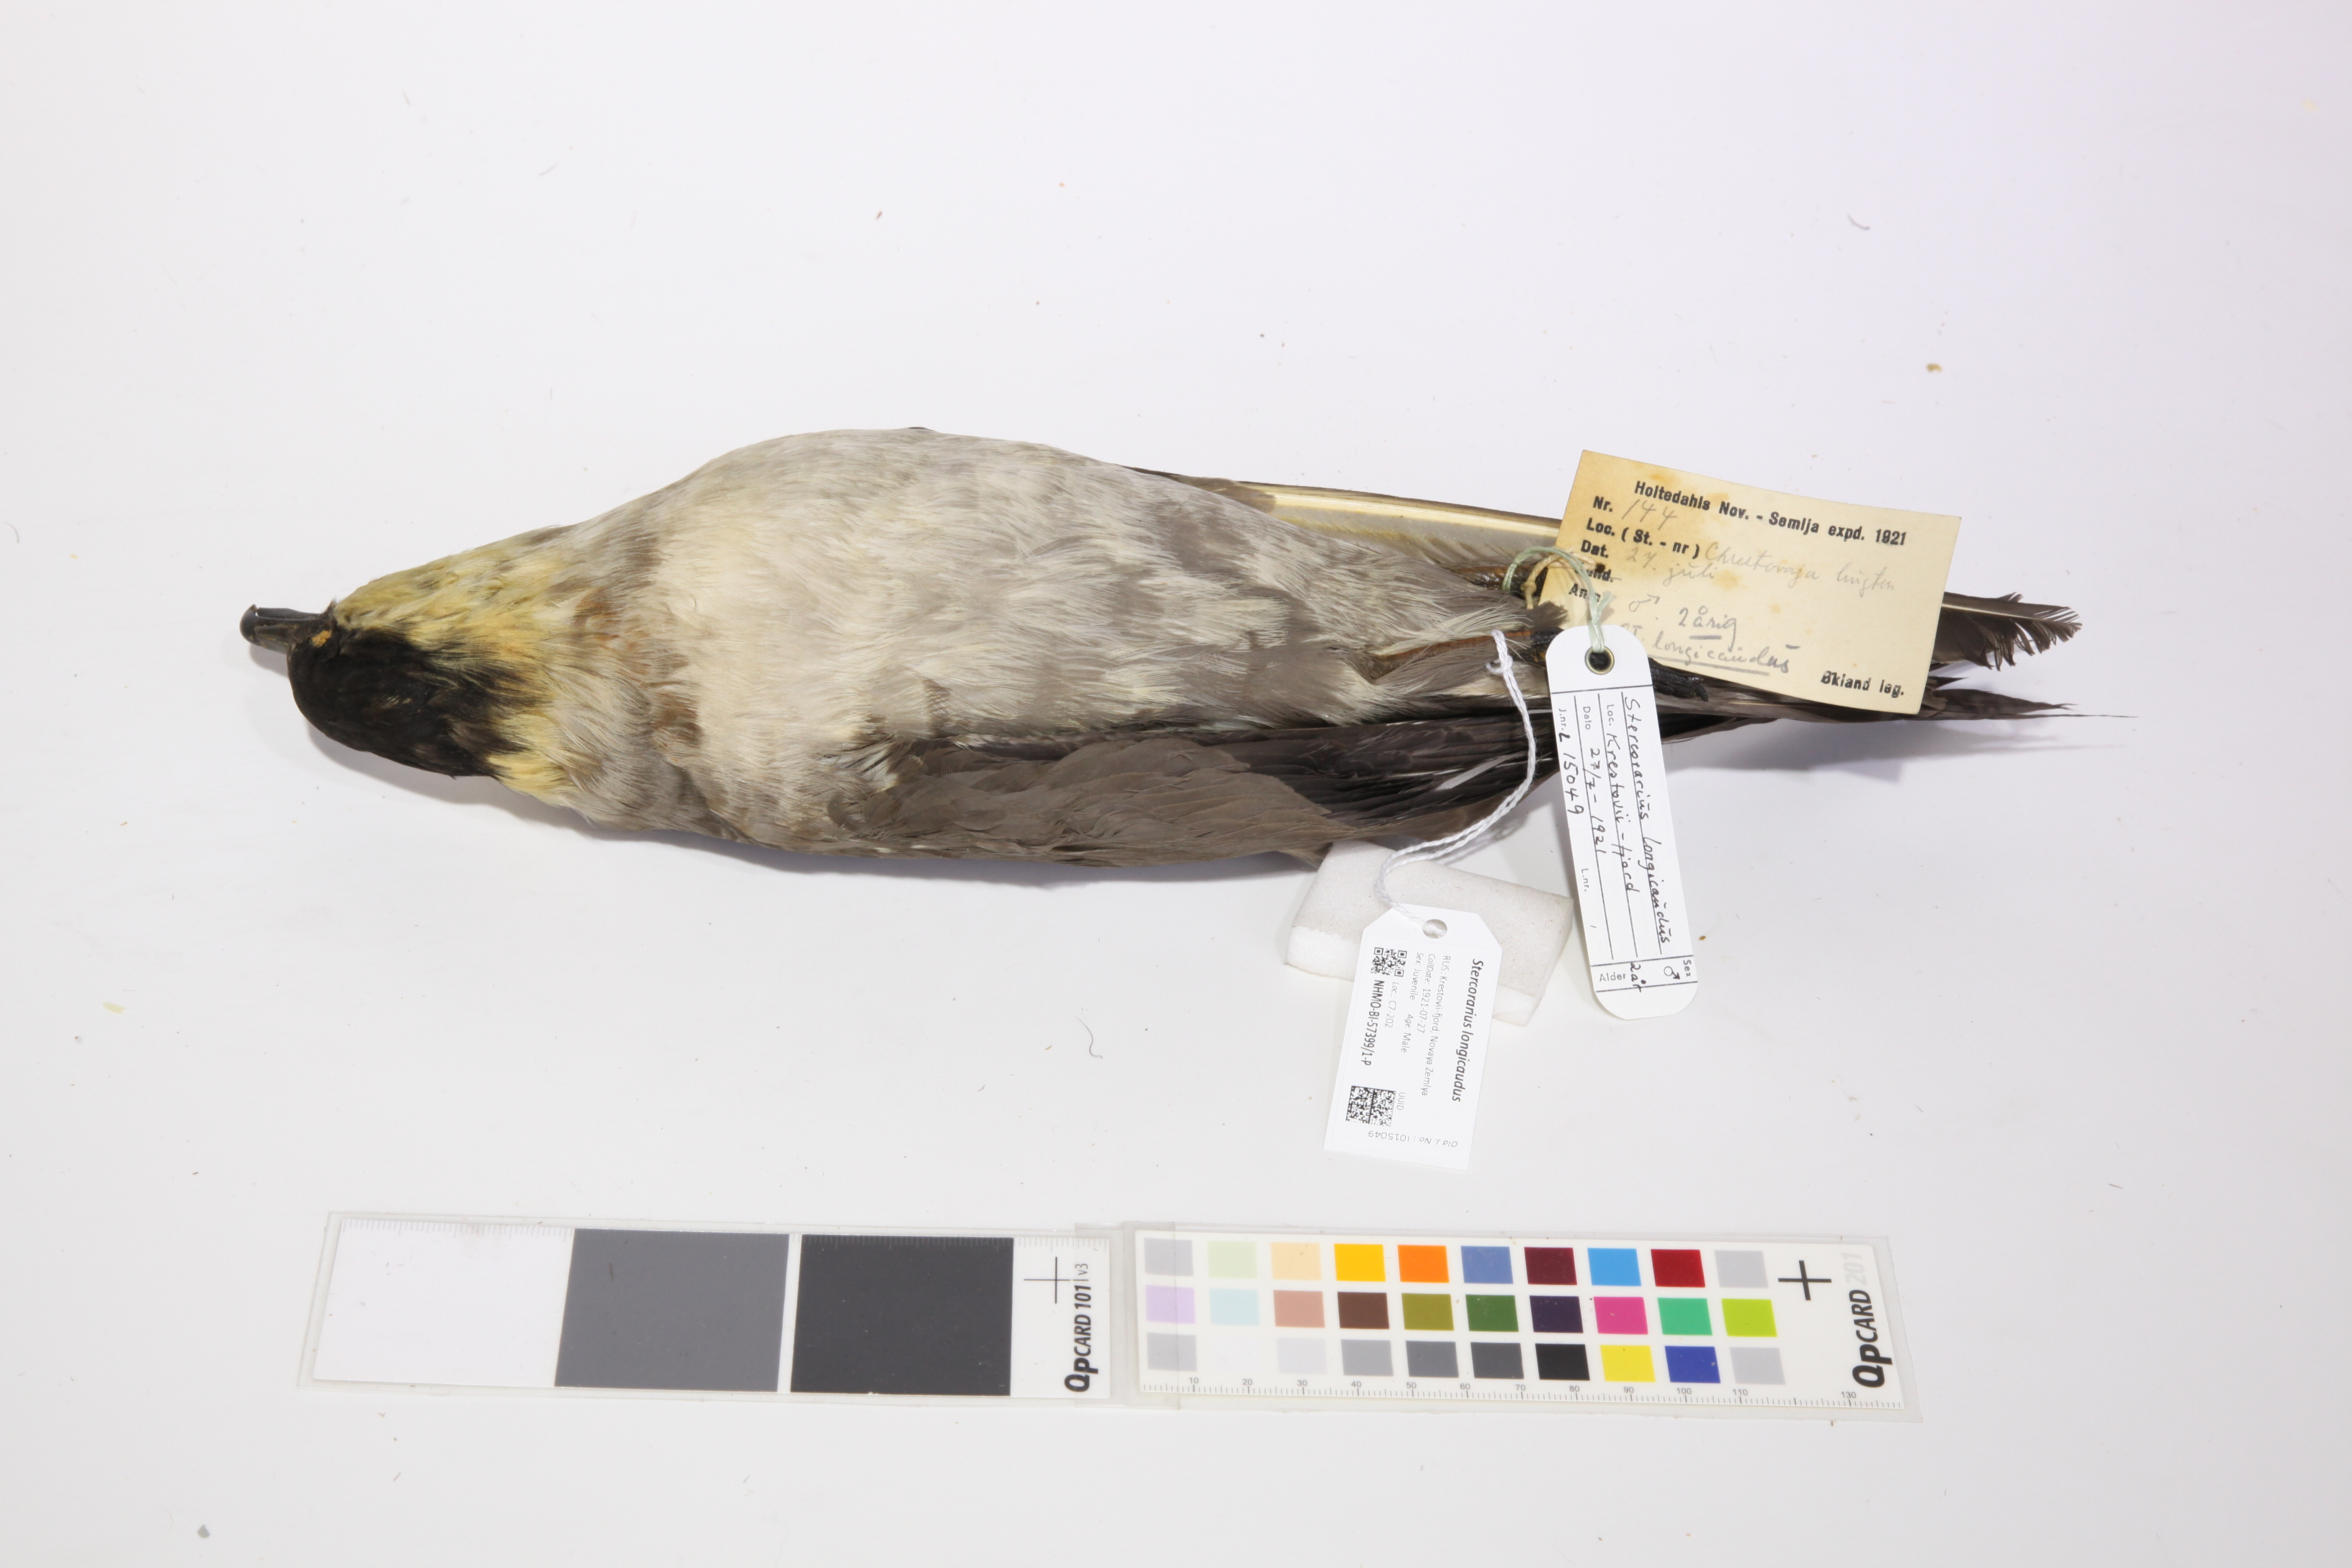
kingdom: Animalia
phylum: Chordata
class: Aves
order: Charadriiformes
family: Stercorariidae
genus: Stercorarius
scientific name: Stercorarius longicaudus
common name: Long-tailed jaeger
